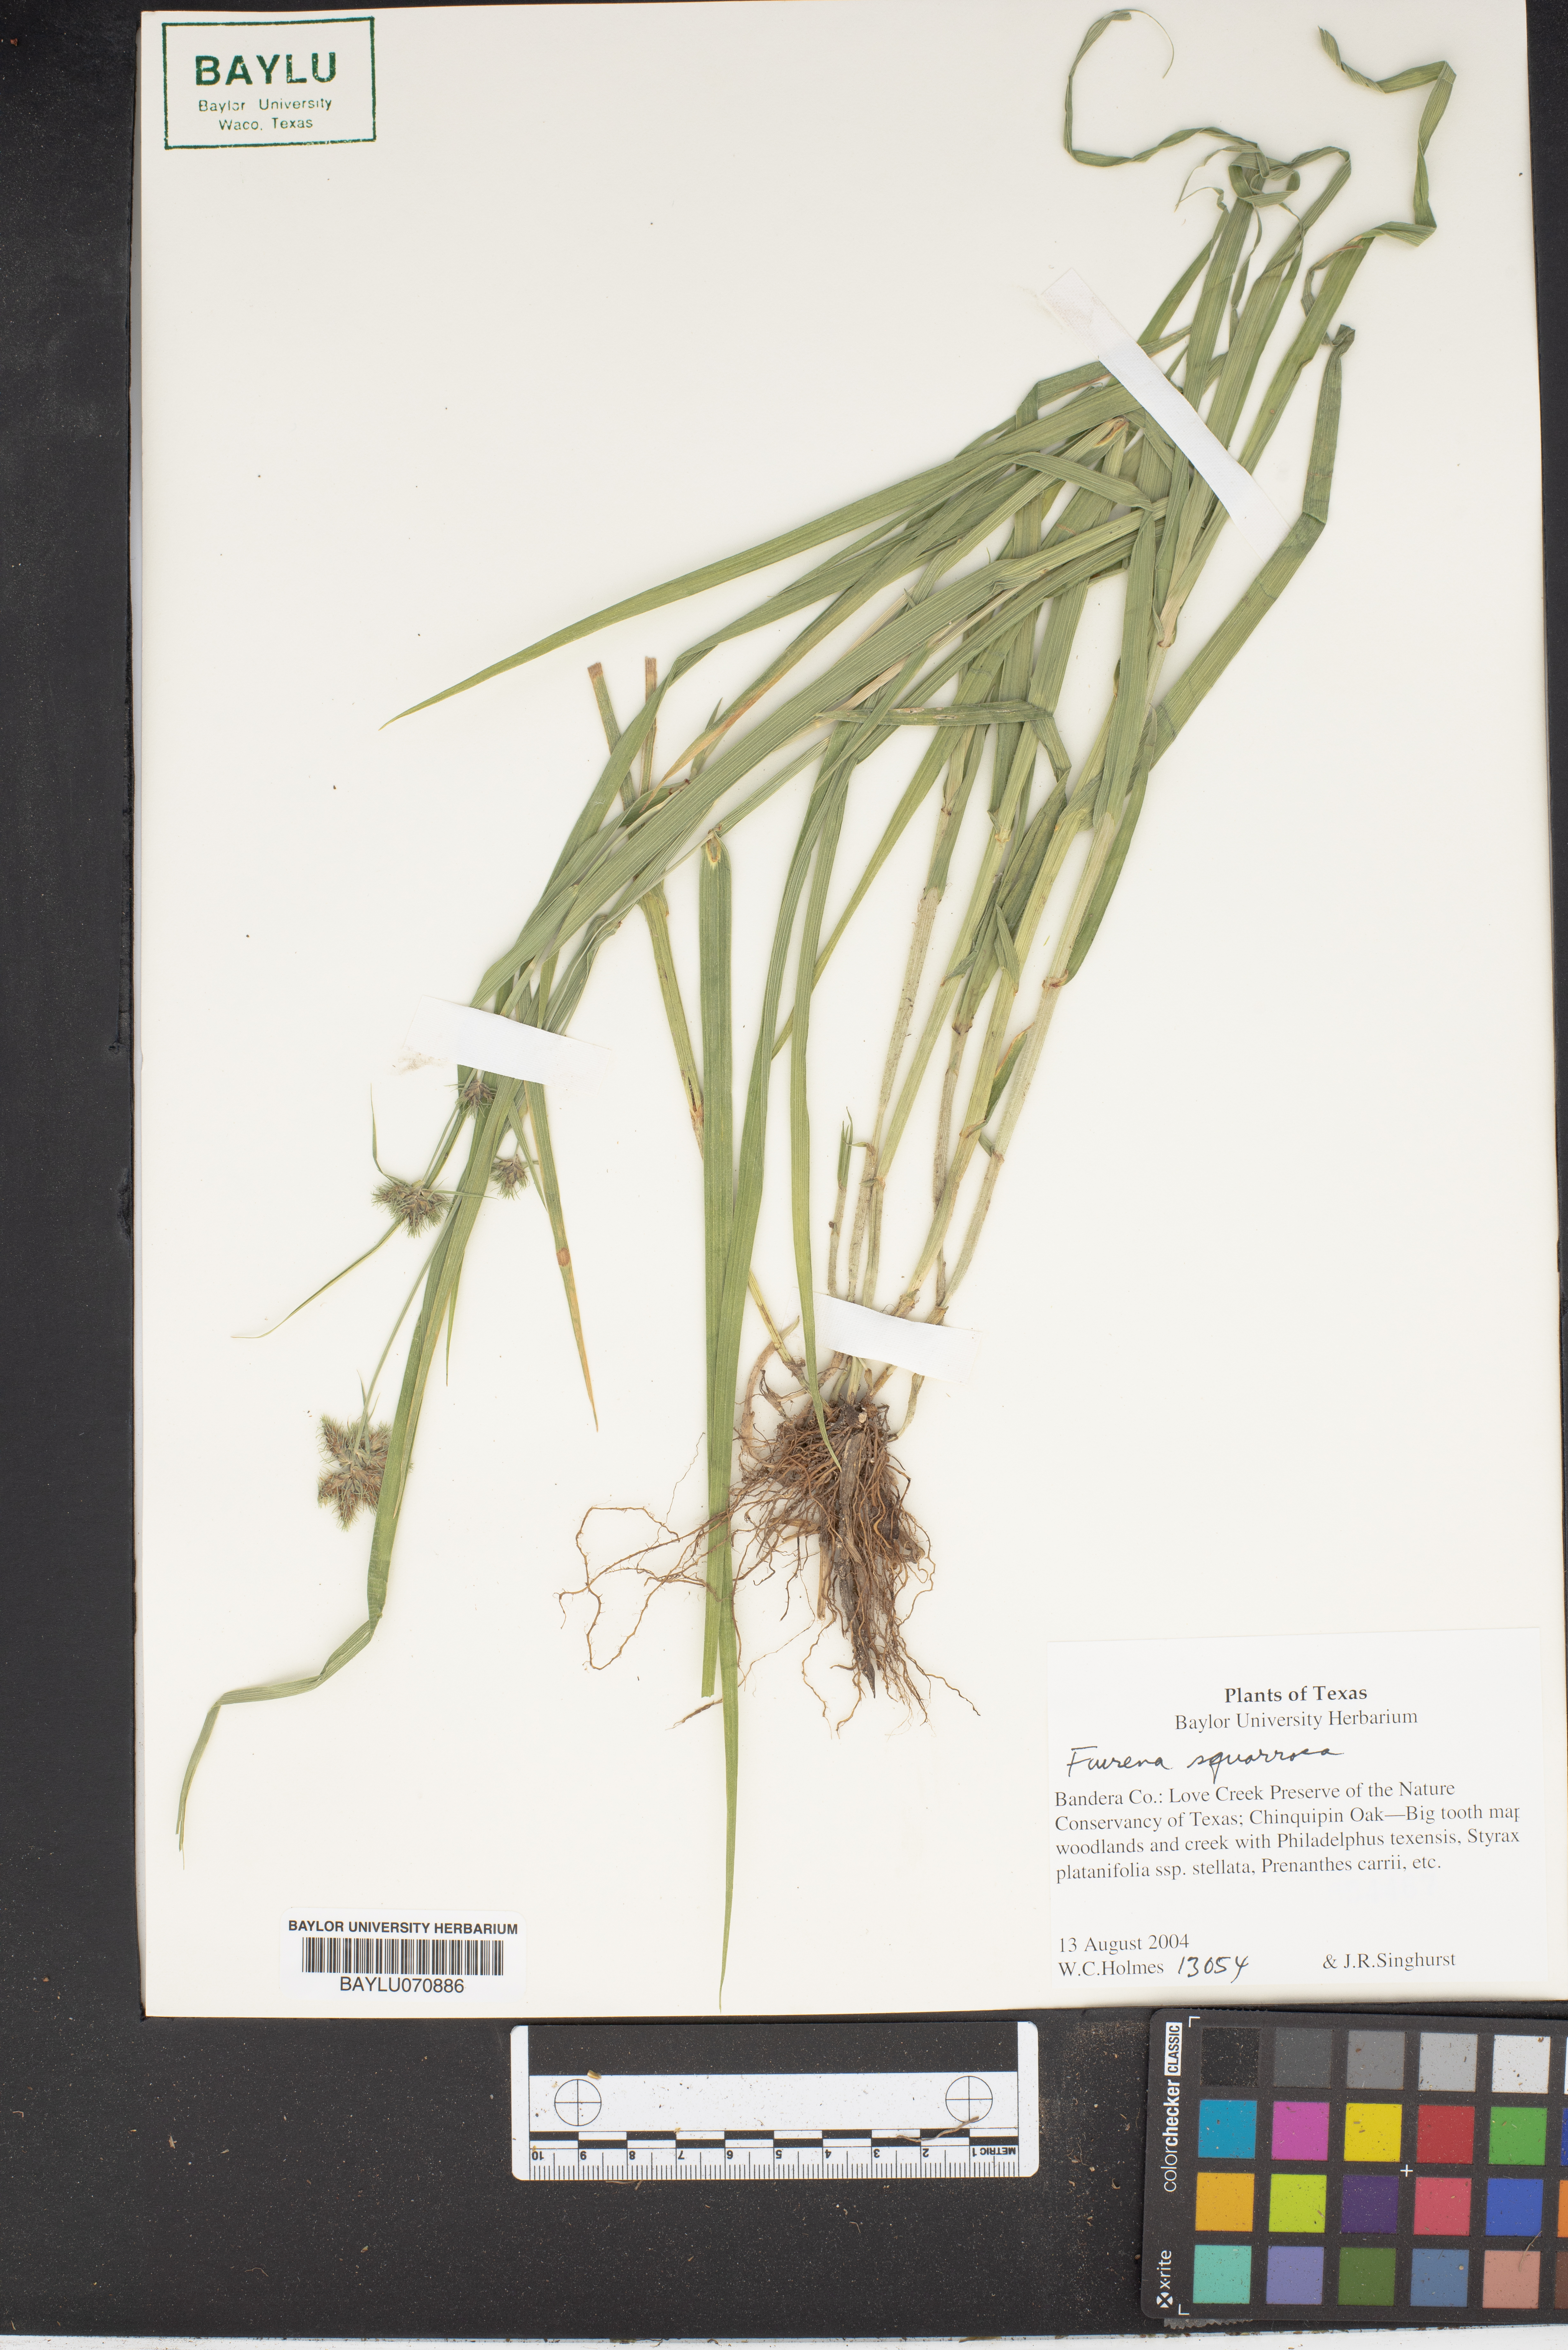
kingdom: Plantae
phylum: Tracheophyta
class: Liliopsida
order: Poales
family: Cyperaceae
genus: Fuirena
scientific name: Fuirena squarrosa
